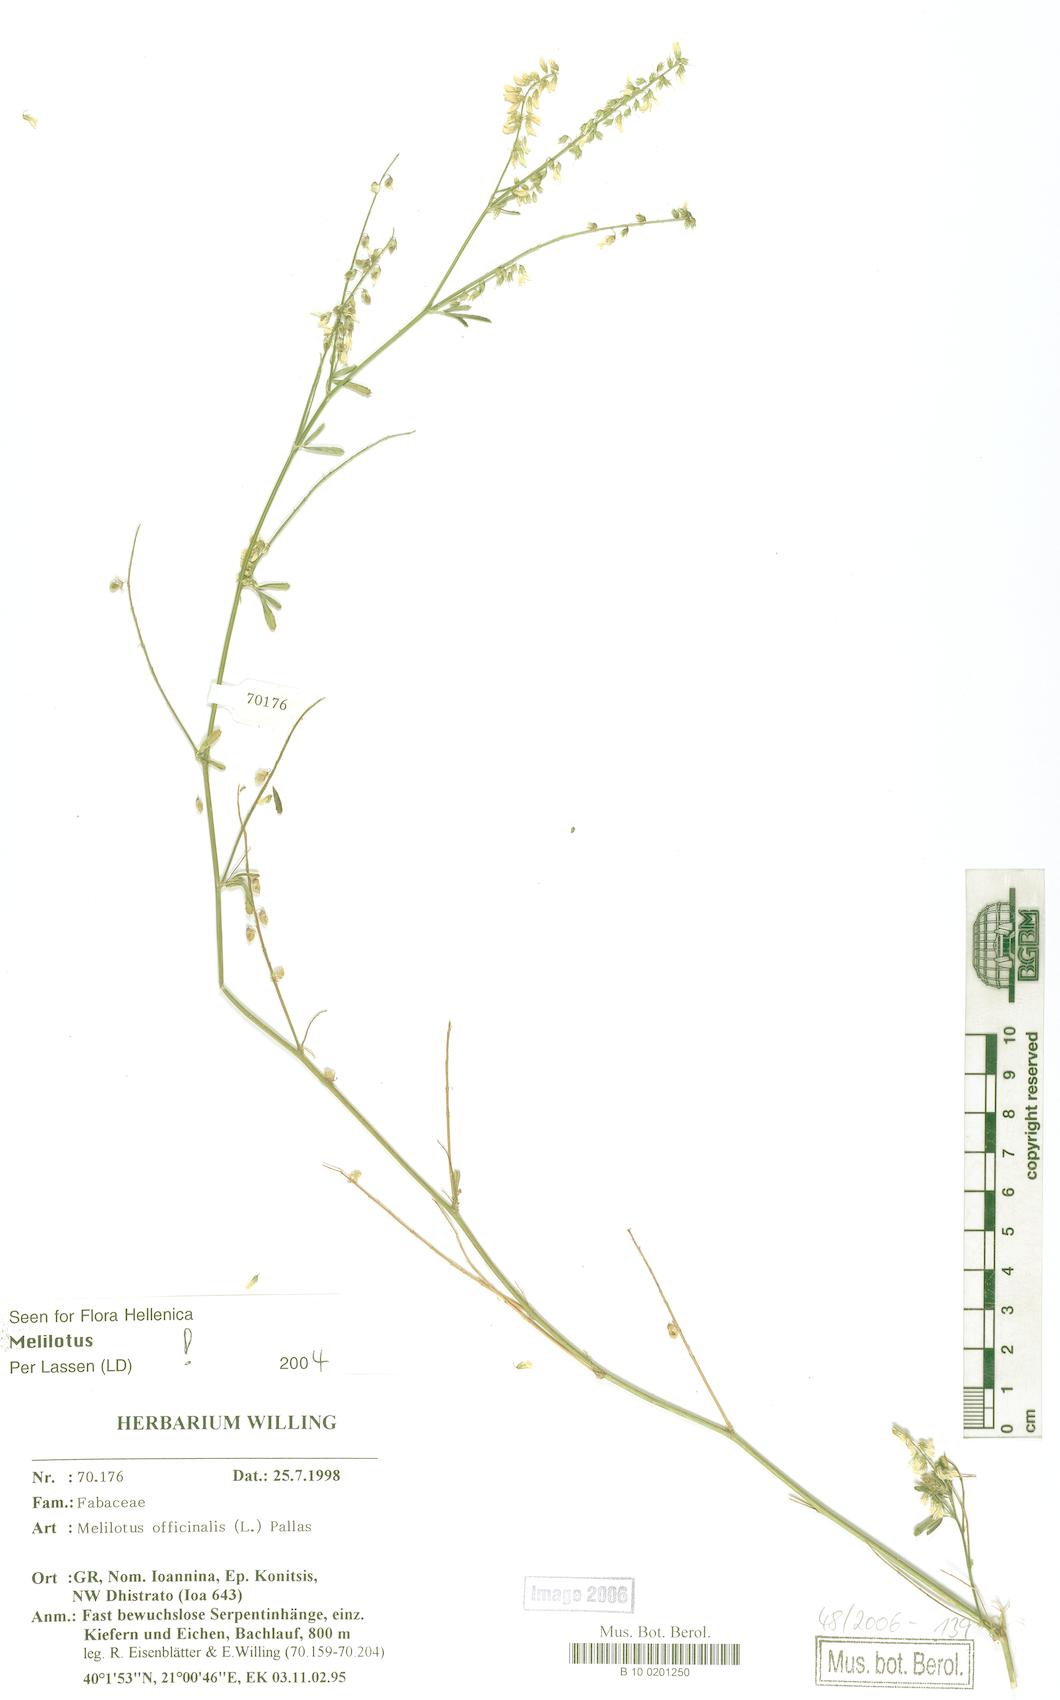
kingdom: Plantae
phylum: Tracheophyta
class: Magnoliopsida
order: Fabales
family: Fabaceae
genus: Melilotus
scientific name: Melilotus officinalis
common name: Sweetclover
